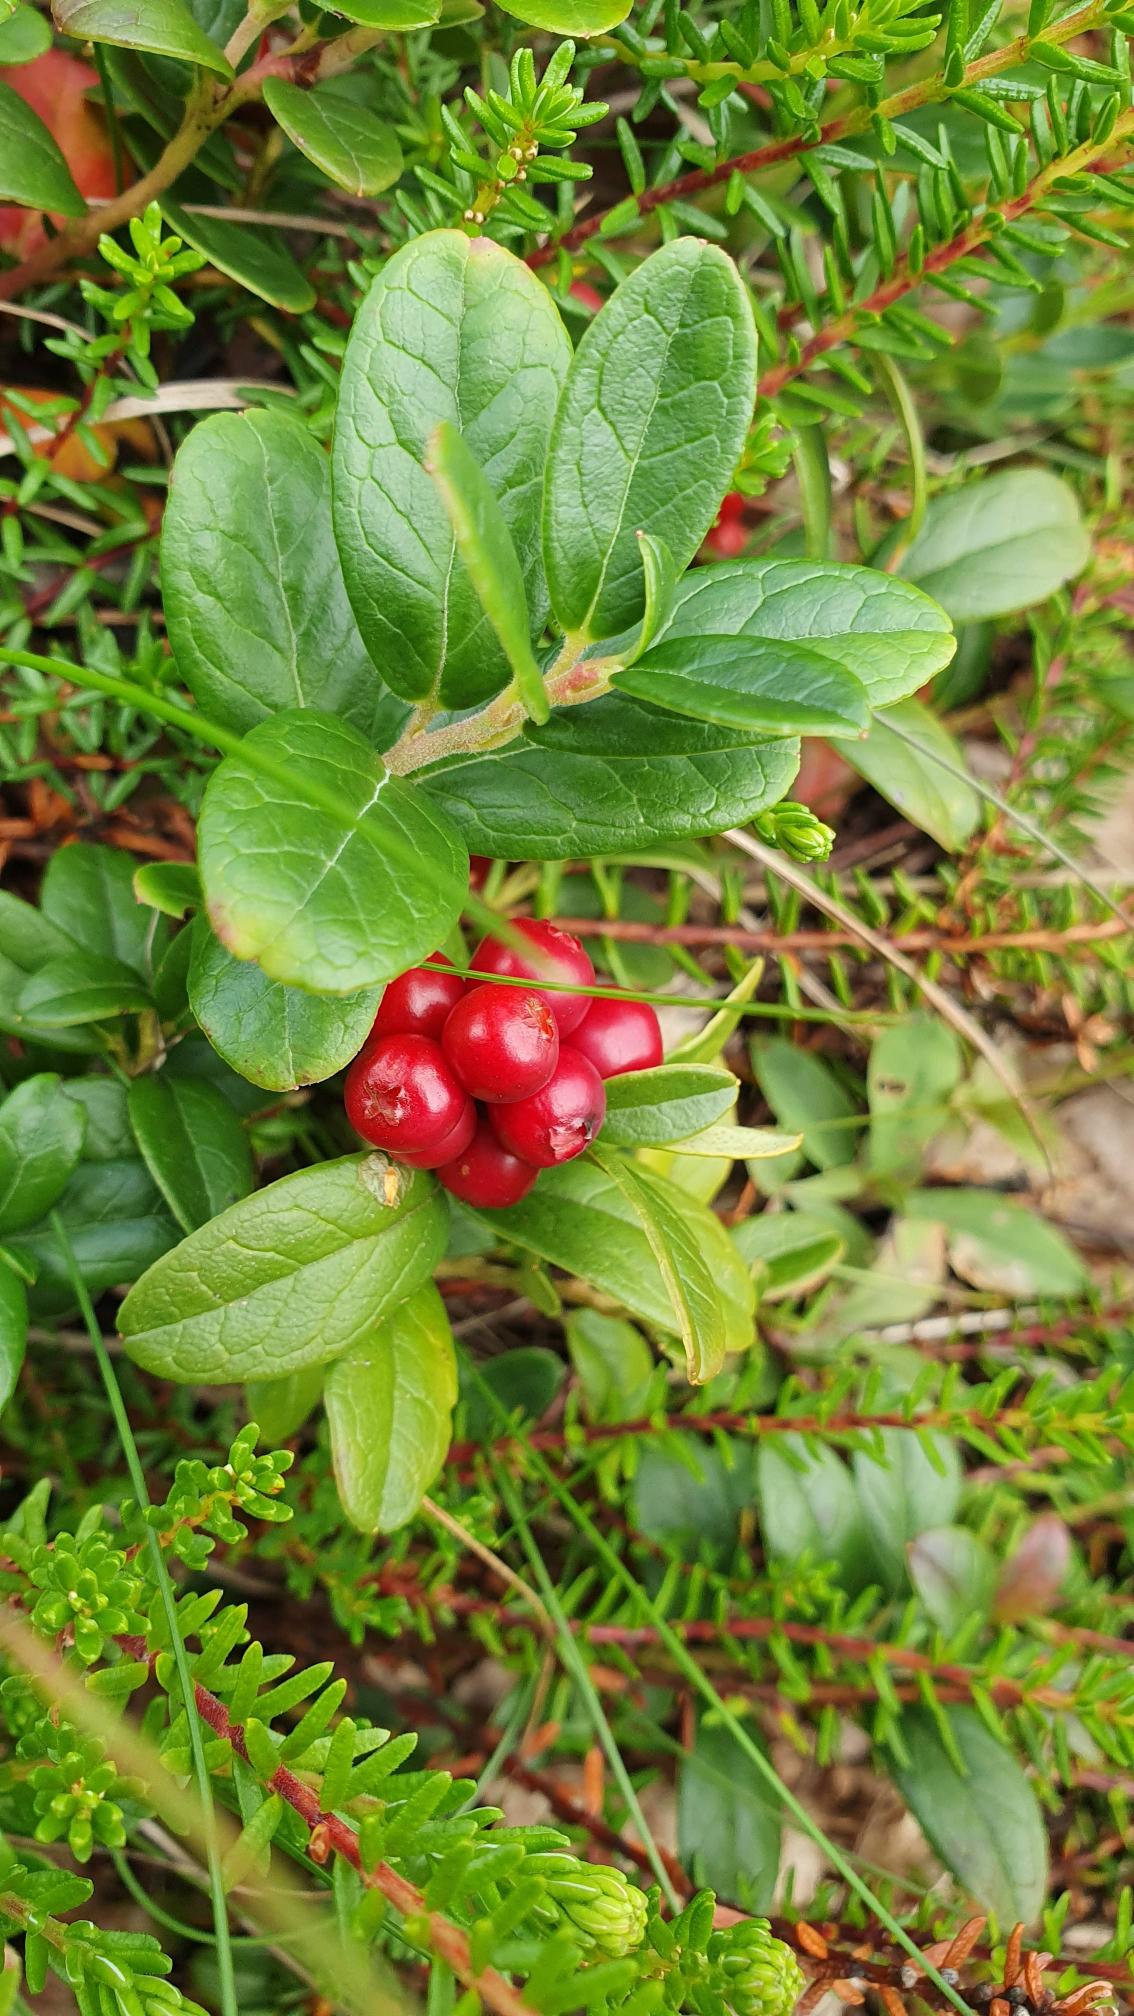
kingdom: Plantae
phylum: Tracheophyta
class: Magnoliopsida
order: Ericales
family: Ericaceae
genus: Vaccinium
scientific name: Vaccinium vitis-idaea
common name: Tyttebær
